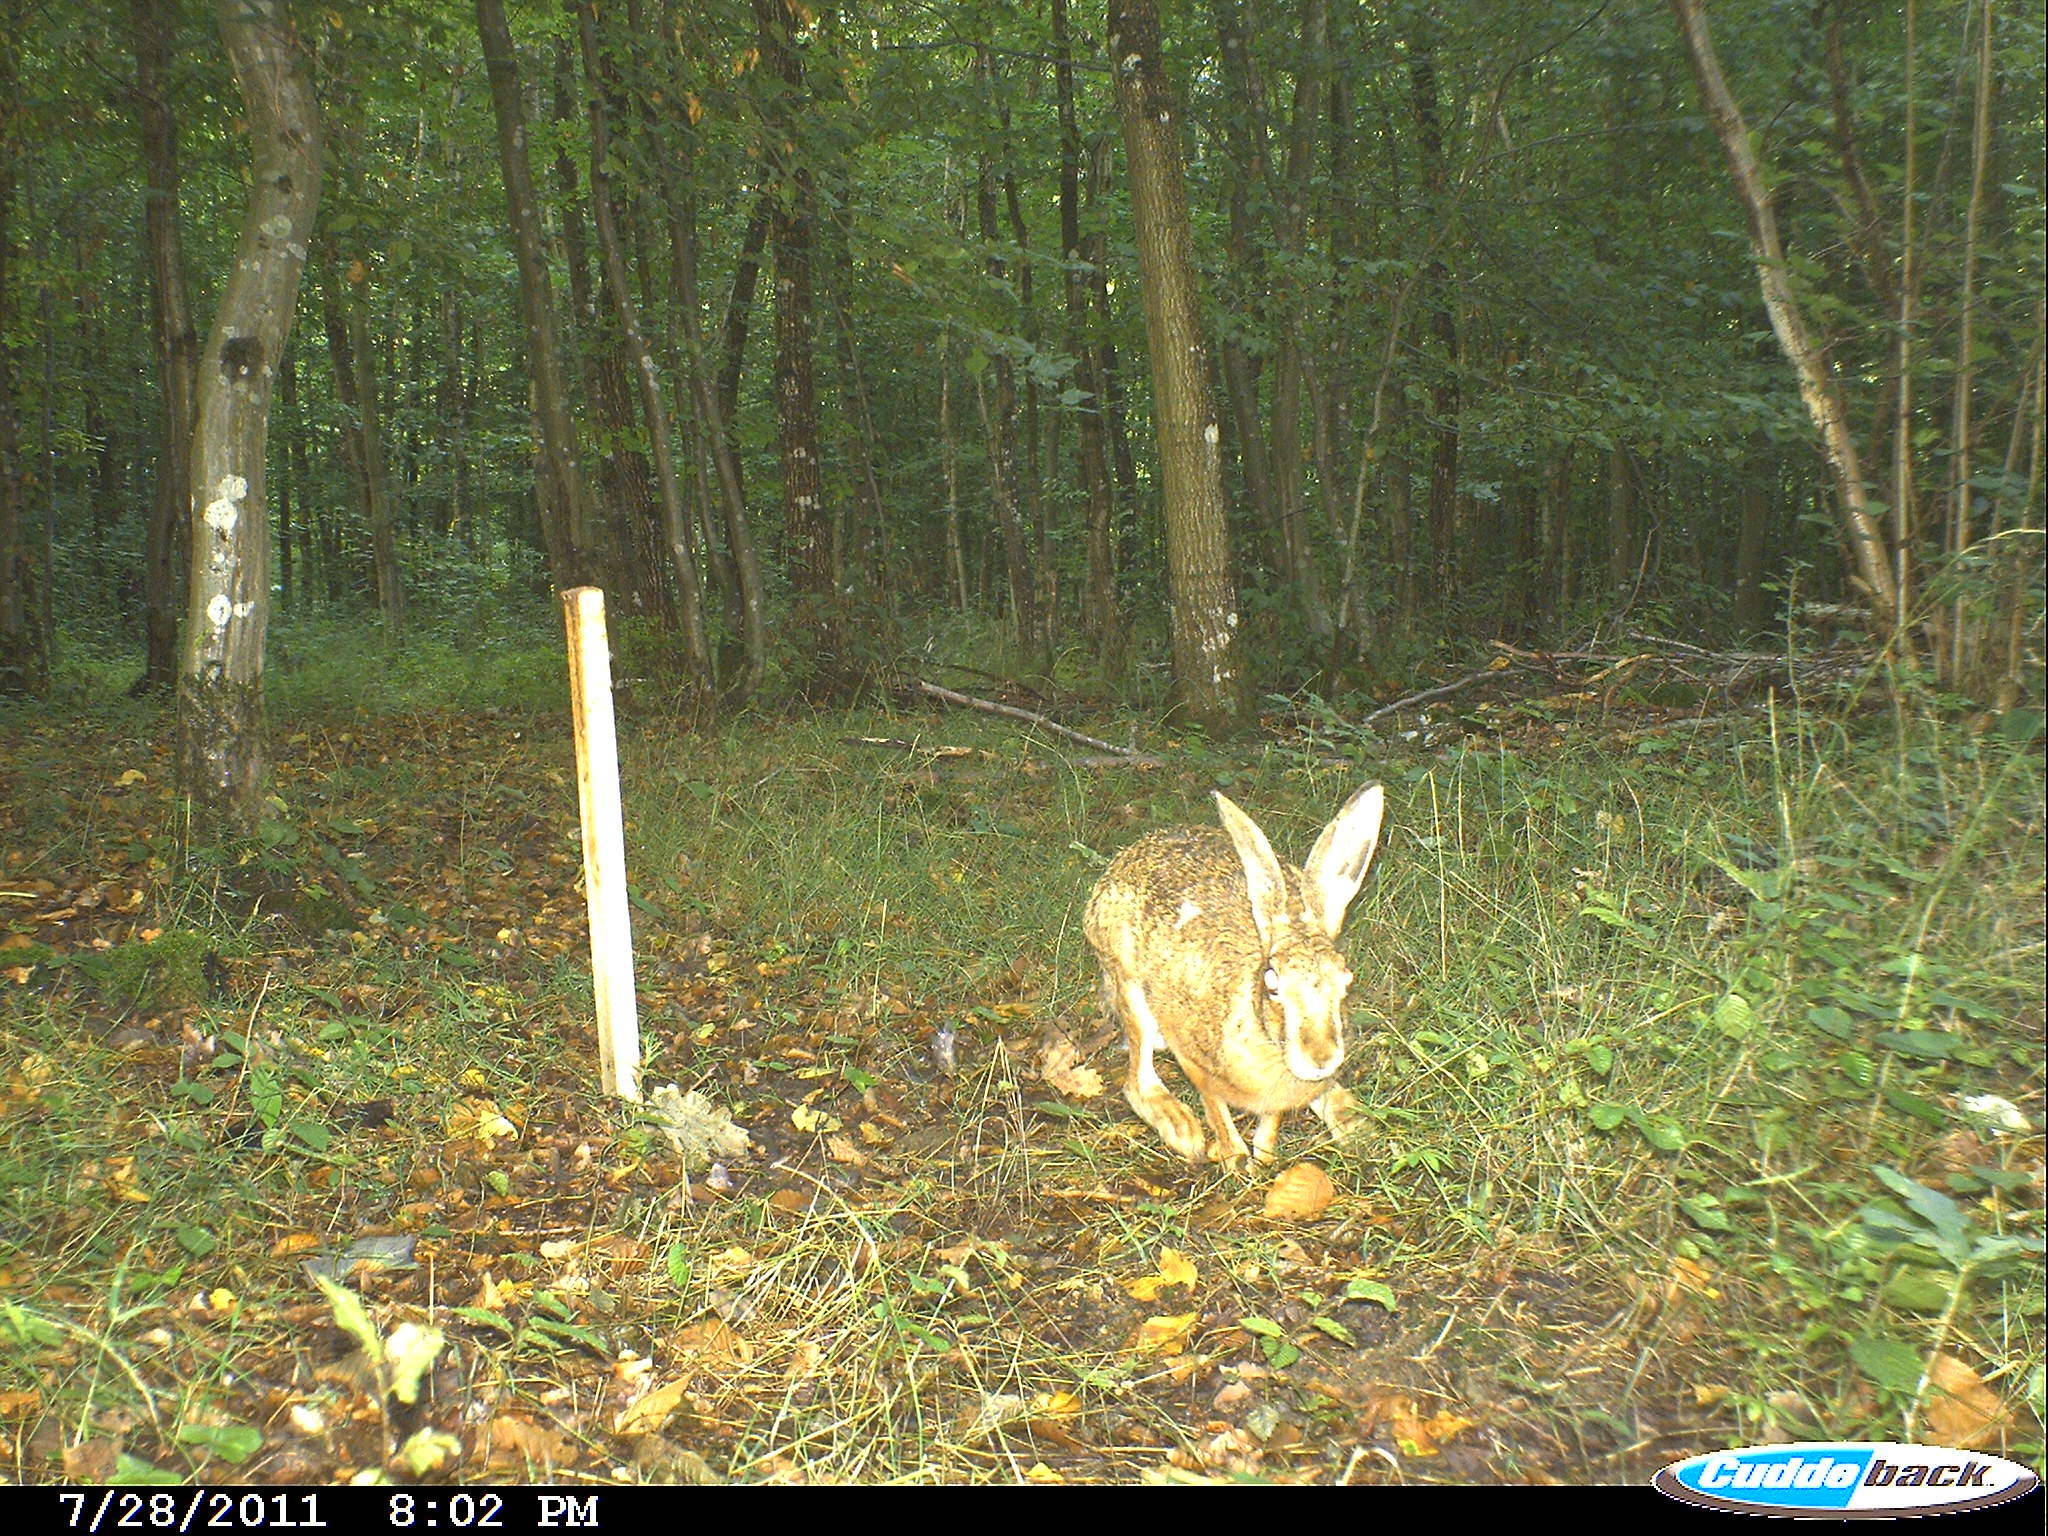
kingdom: Animalia
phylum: Chordata
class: Mammalia
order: Lagomorpha
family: Leporidae
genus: Lepus
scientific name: Lepus europaeus
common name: European hare
